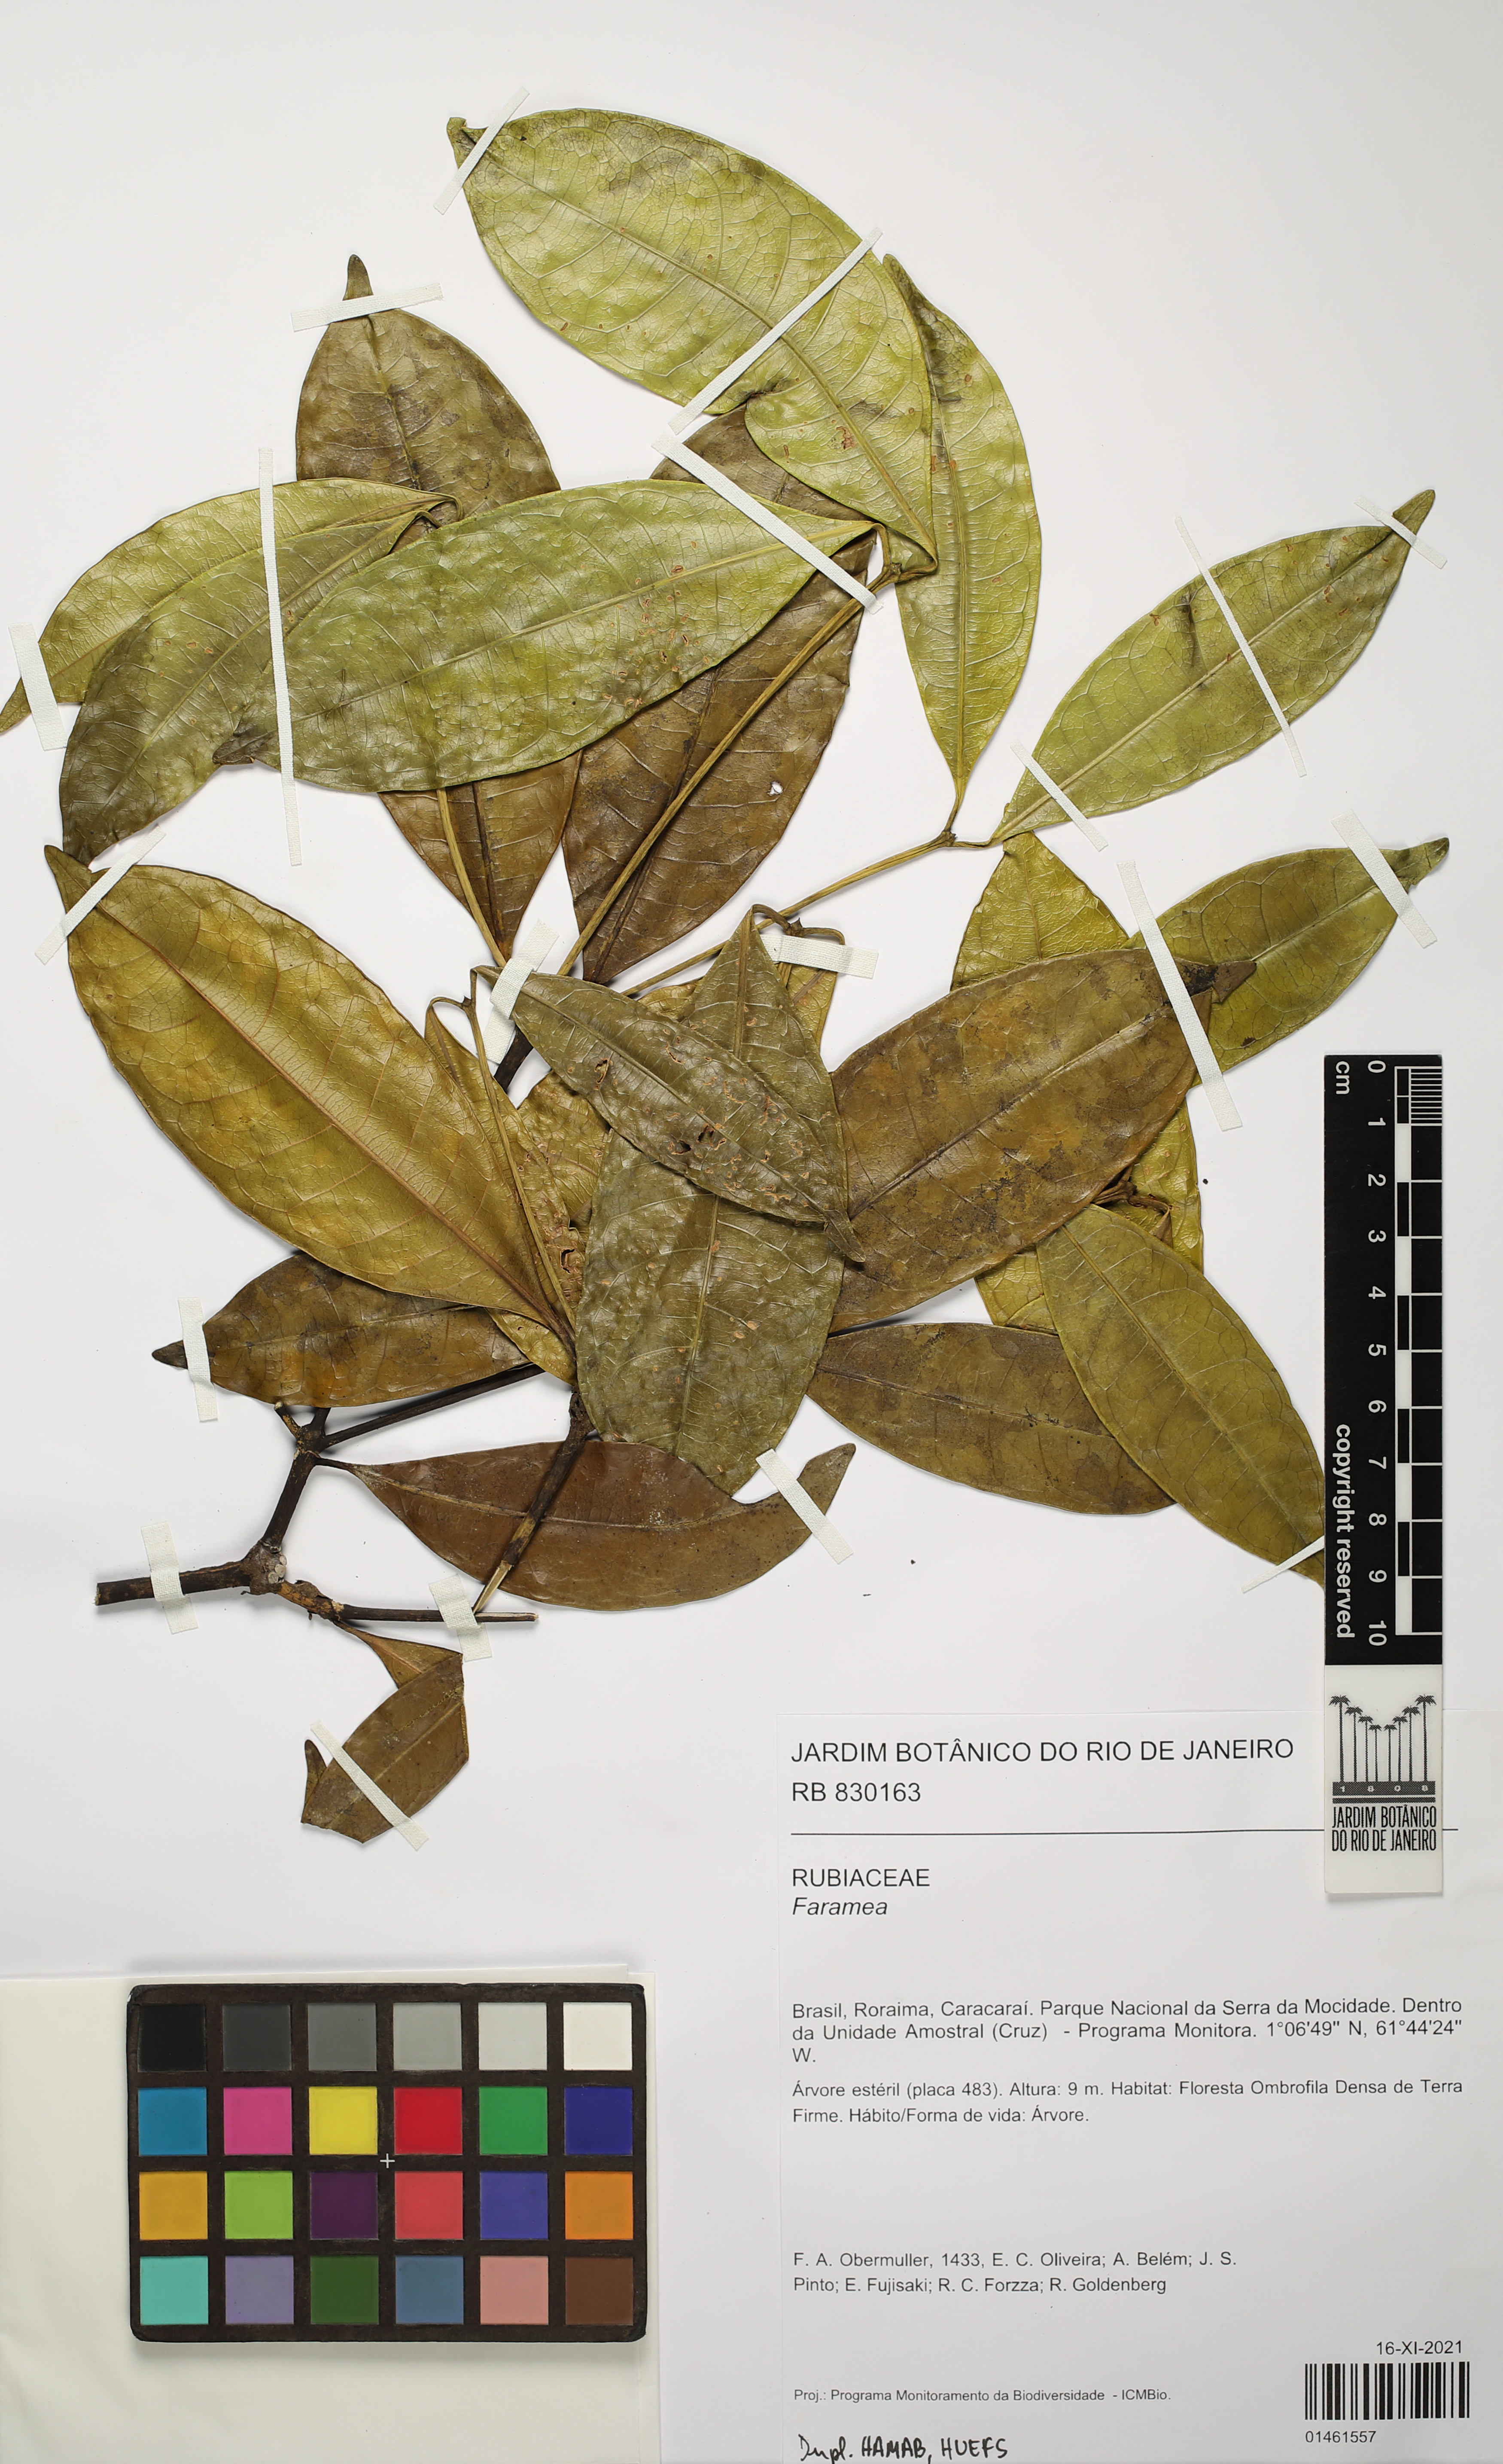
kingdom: Plantae
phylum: Tracheophyta
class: Magnoliopsida
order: Gentianales
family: Rubiaceae
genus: Faramea
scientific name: Faramea
